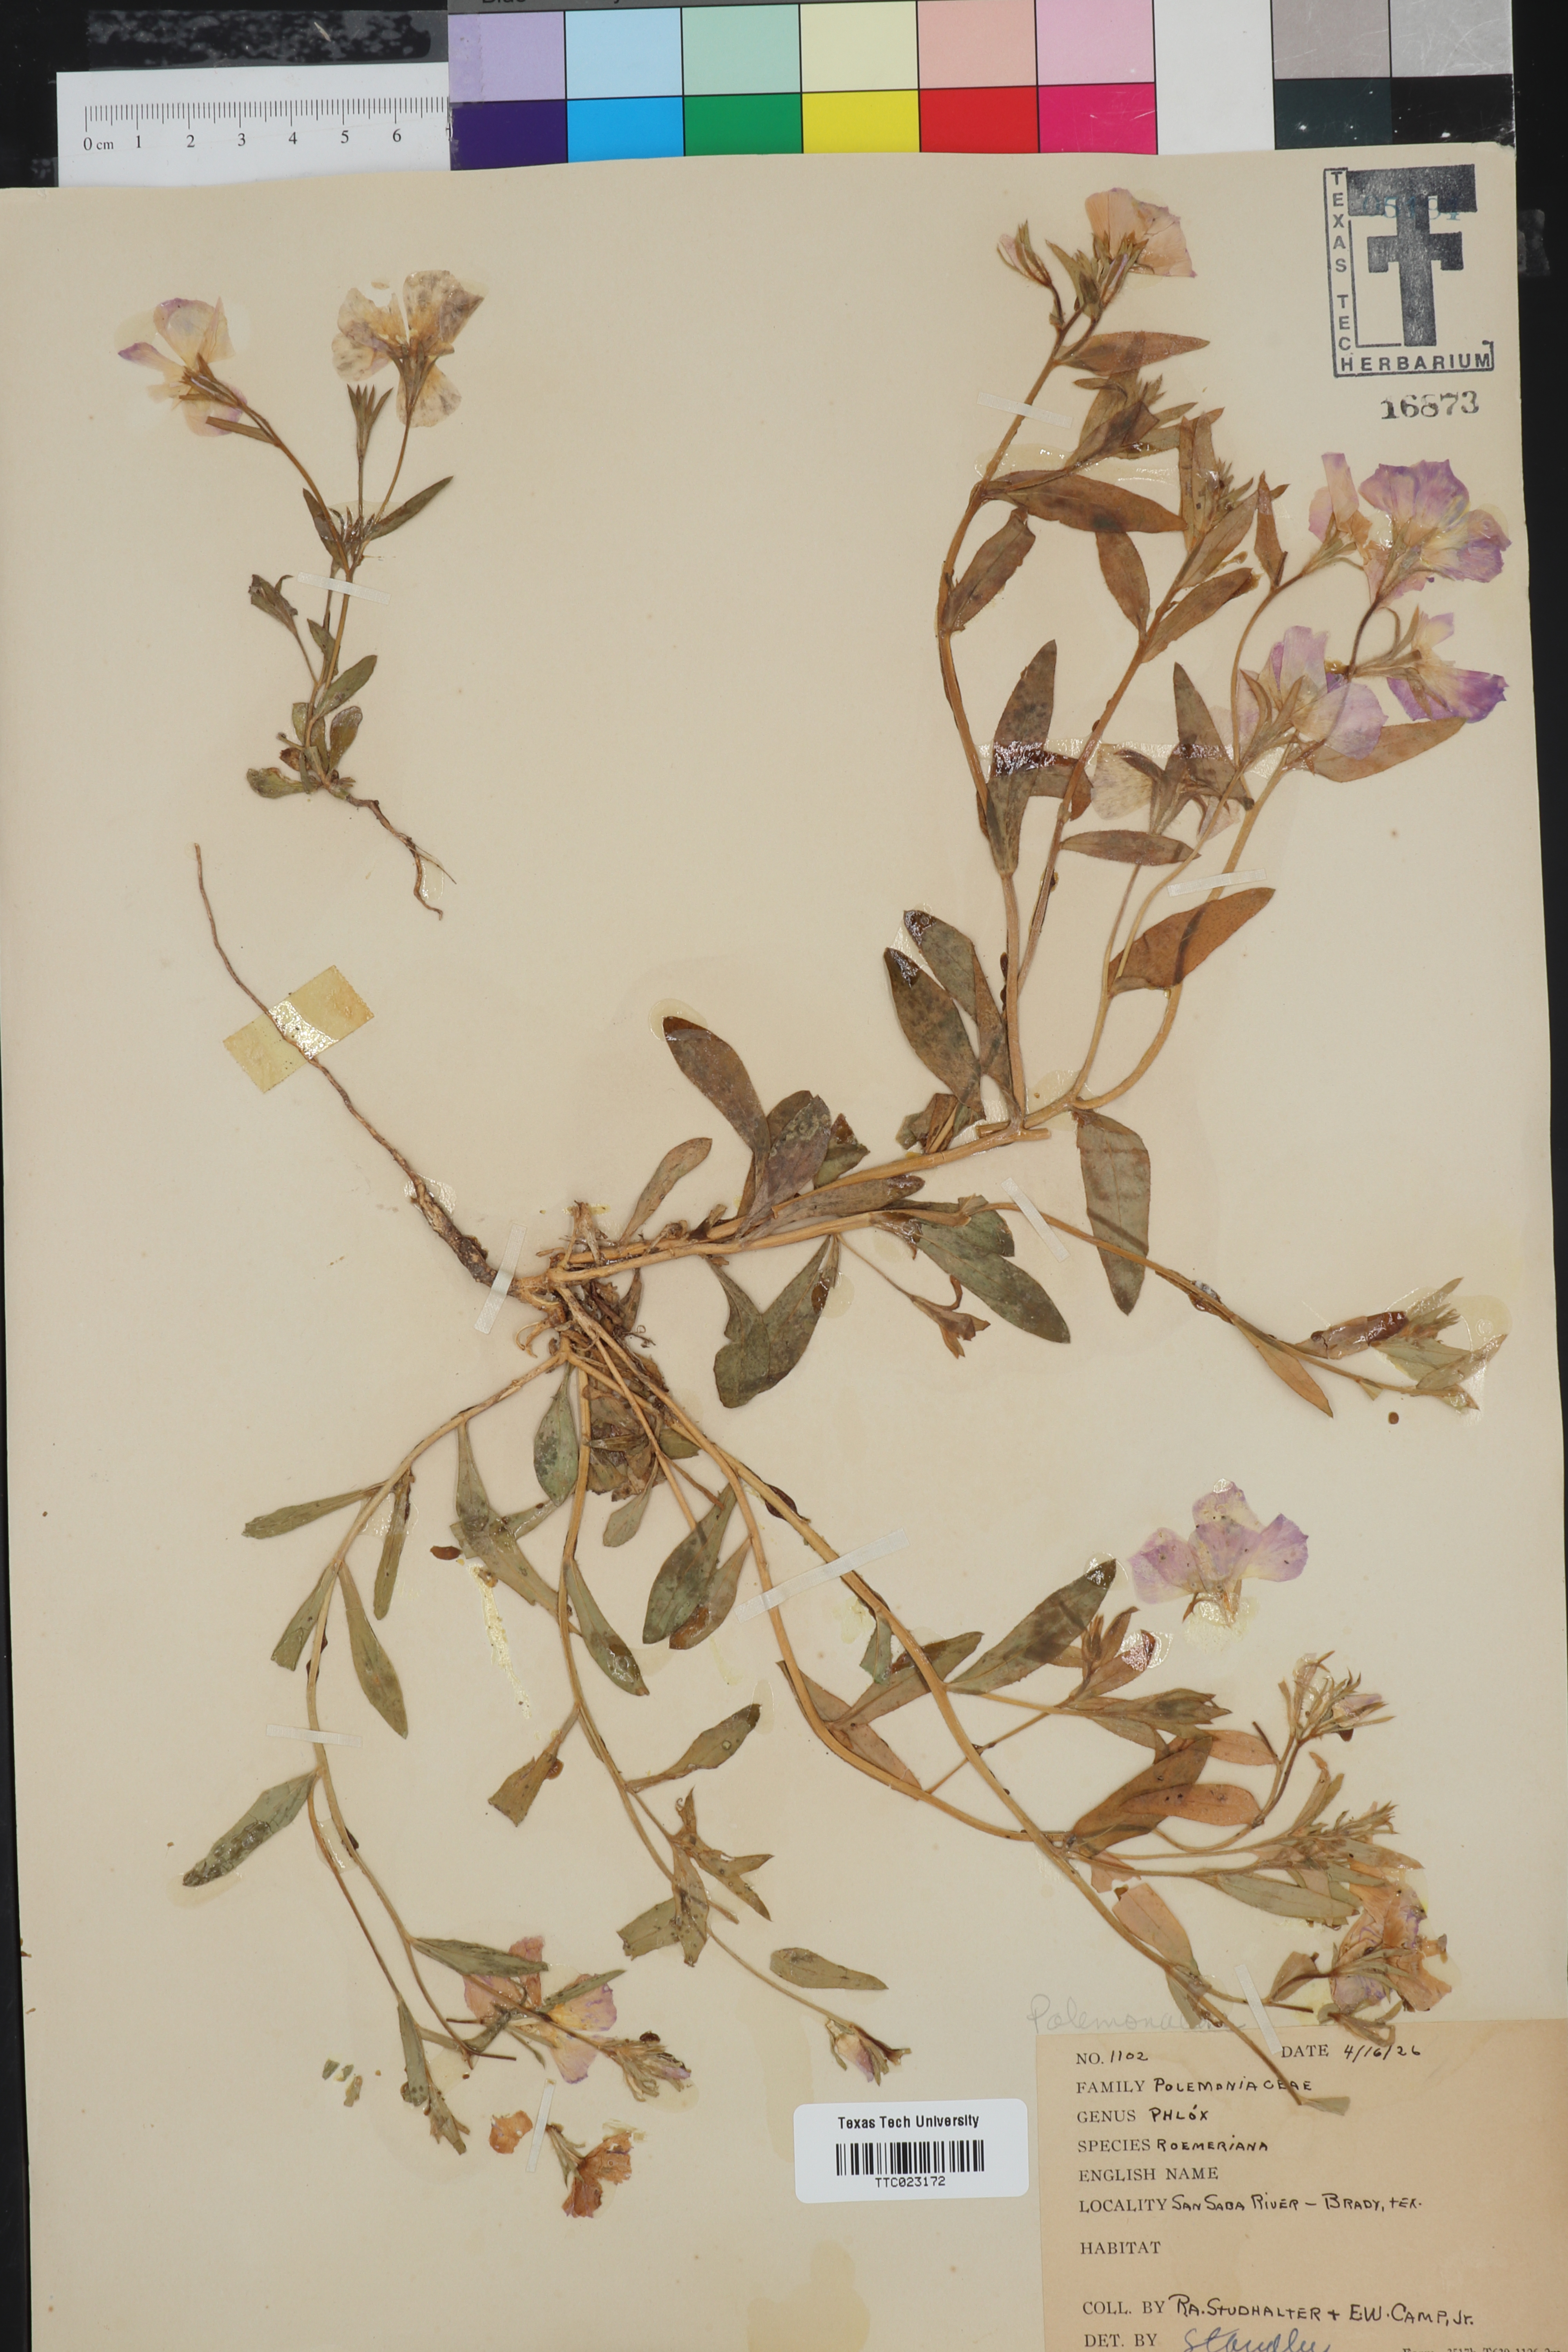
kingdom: Plantae
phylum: Tracheophyta
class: Magnoliopsida
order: Ericales
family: Polemoniaceae
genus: Phlox
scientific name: Phlox roemeriana
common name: Roemer's phlox
